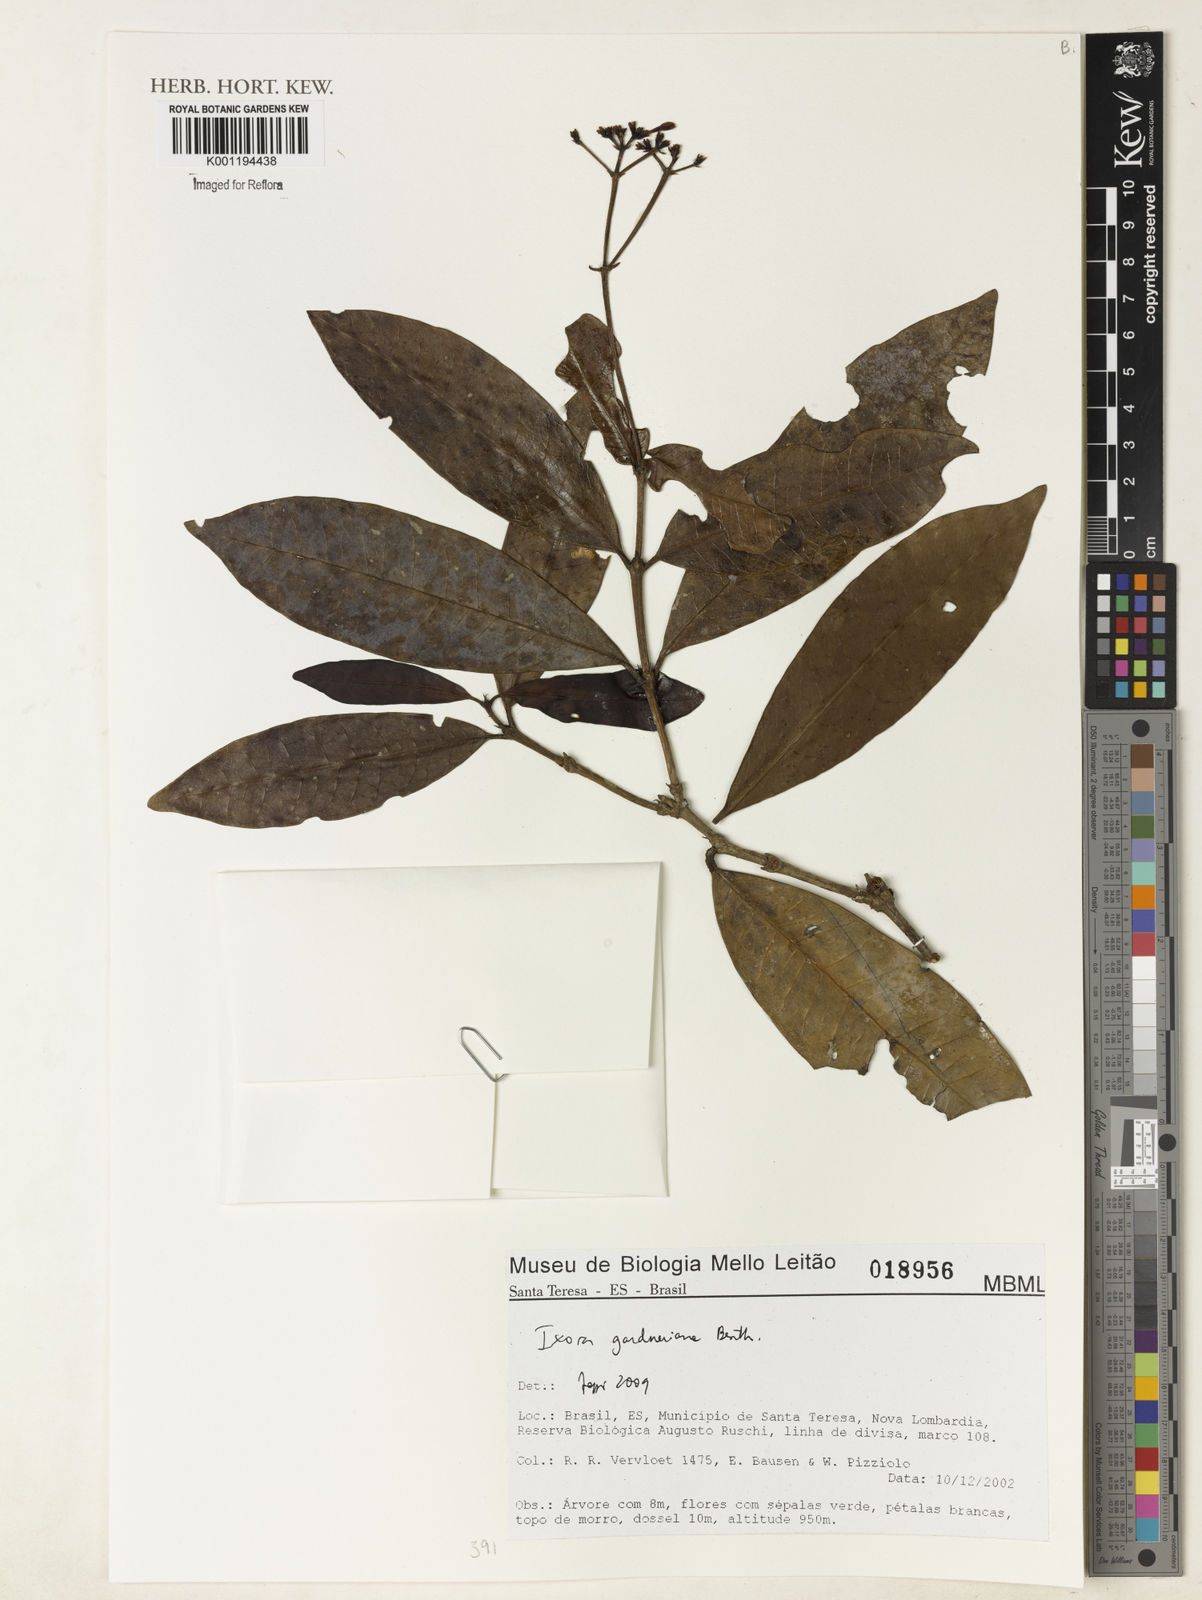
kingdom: Plantae
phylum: Tracheophyta
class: Magnoliopsida
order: Gentianales
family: Rubiaceae
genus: Ixora
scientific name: Ixora gardneriana
